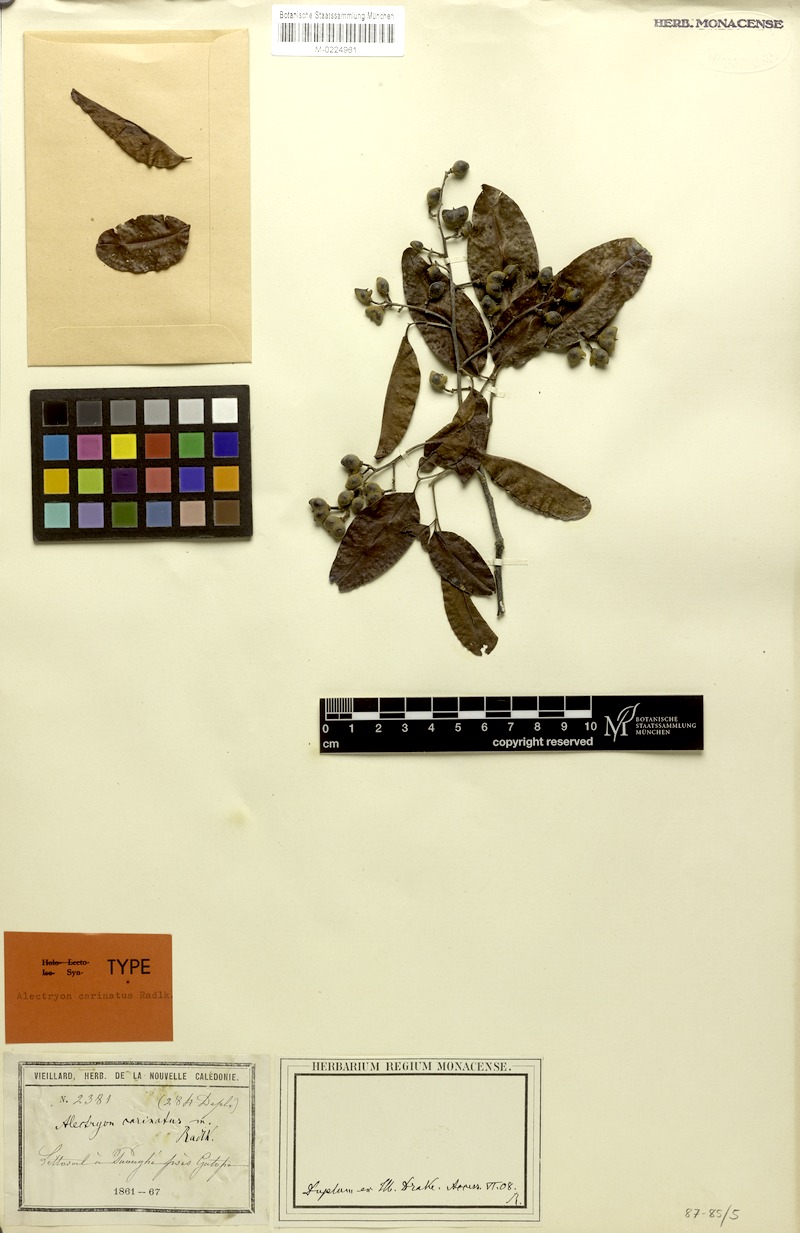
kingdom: Plantae
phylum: Tracheophyta
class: Magnoliopsida
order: Sapindales
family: Sapindaceae
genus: Alectryon
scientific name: Alectryon carinatus
